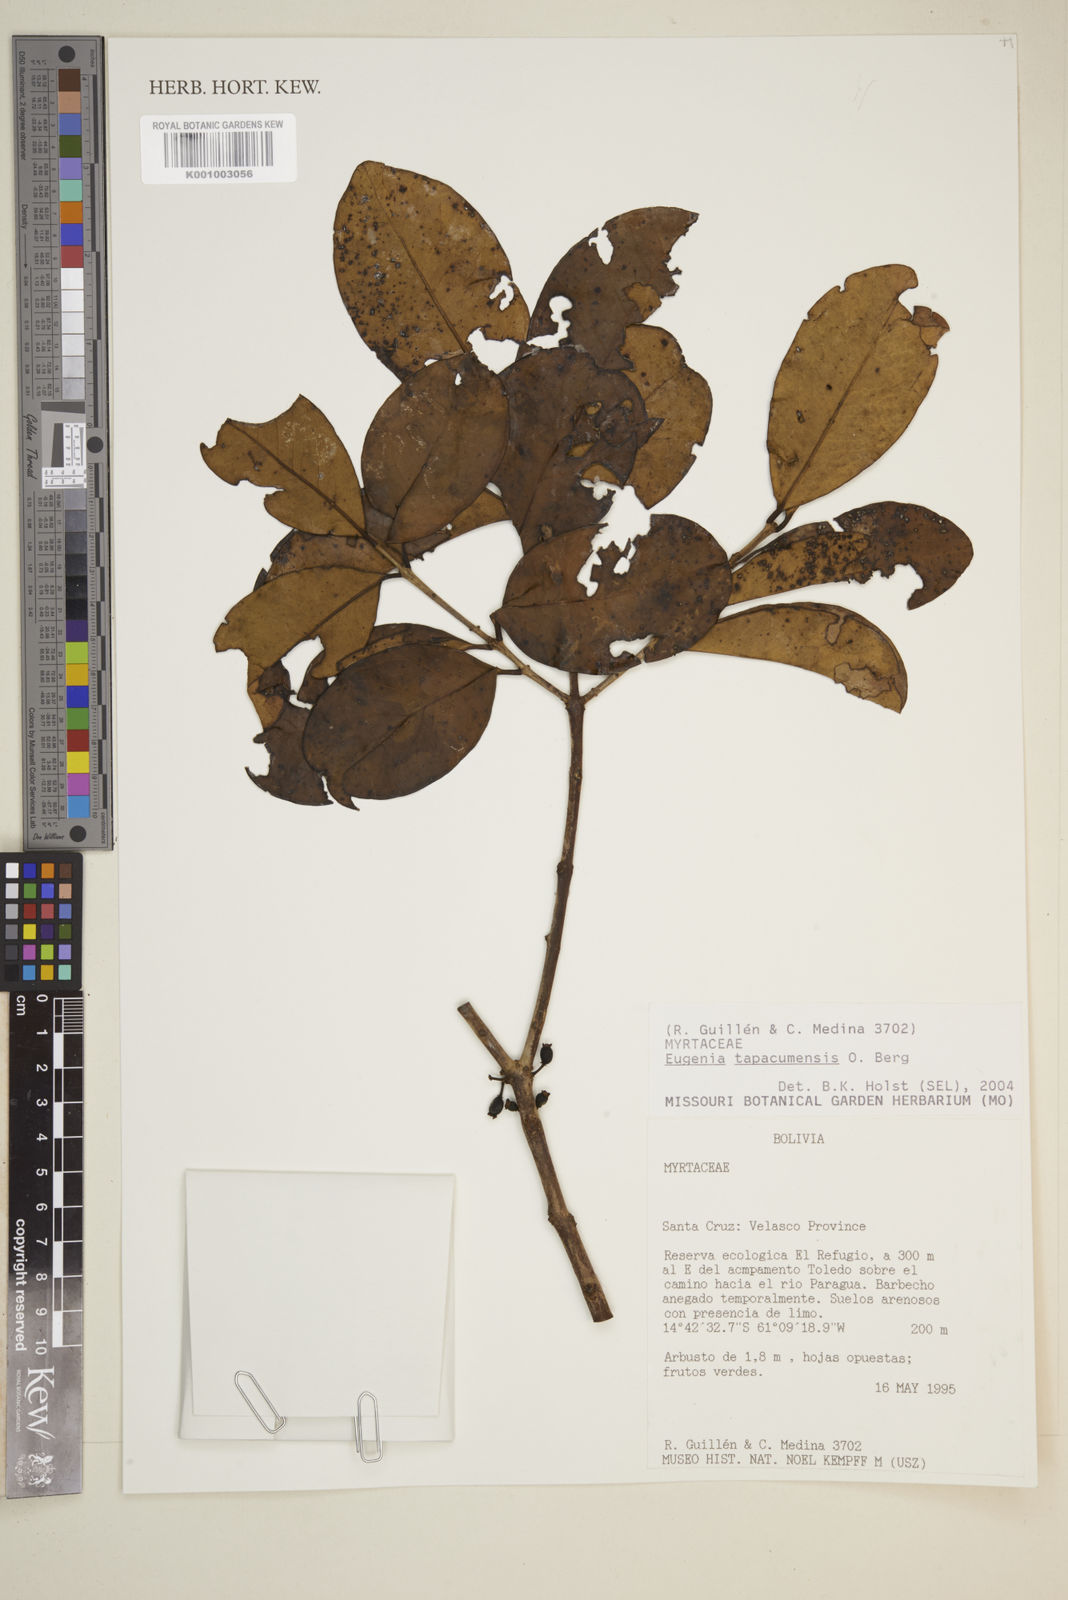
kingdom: Plantae
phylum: Tracheophyta
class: Magnoliopsida
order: Myrtales
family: Myrtaceae
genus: Eugenia
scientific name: Eugenia tapacumensis
